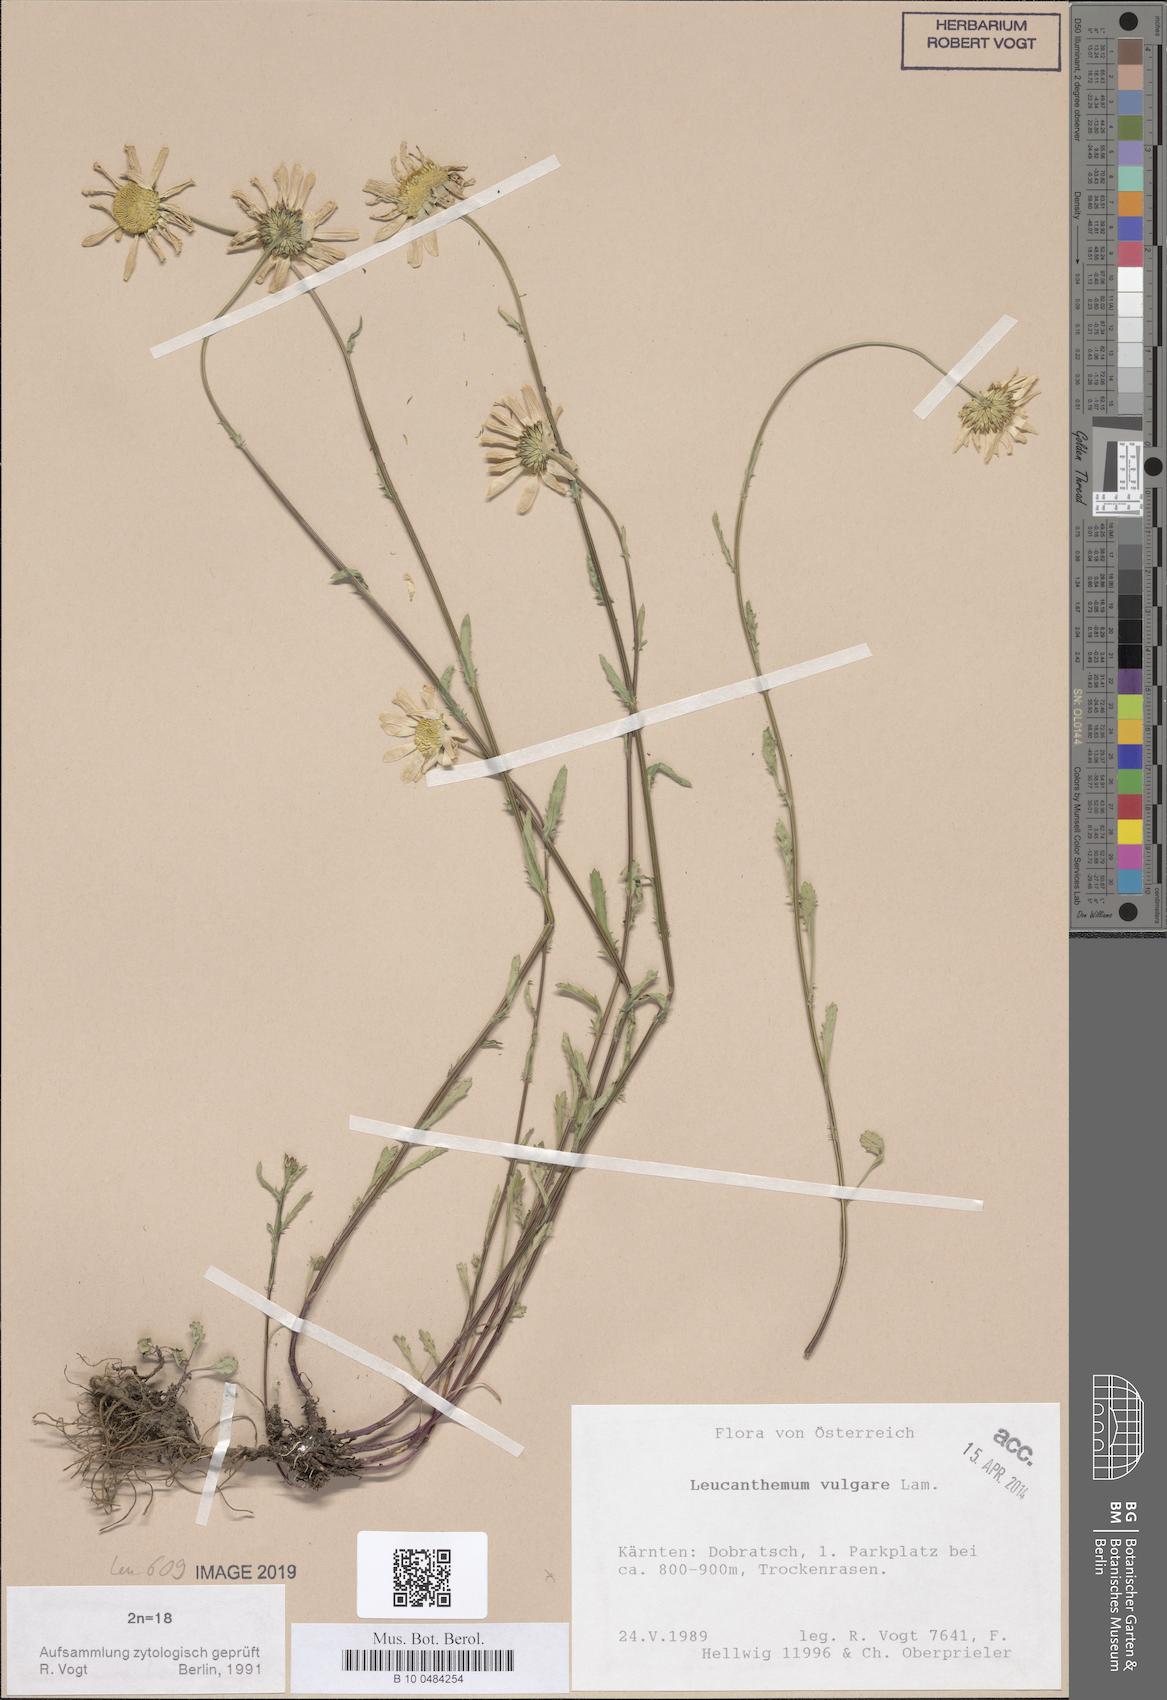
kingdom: Plantae
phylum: Tracheophyta
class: Magnoliopsida
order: Asterales
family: Asteraceae
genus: Leucanthemum
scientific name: Leucanthemum vulgare
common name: Oxeye daisy
